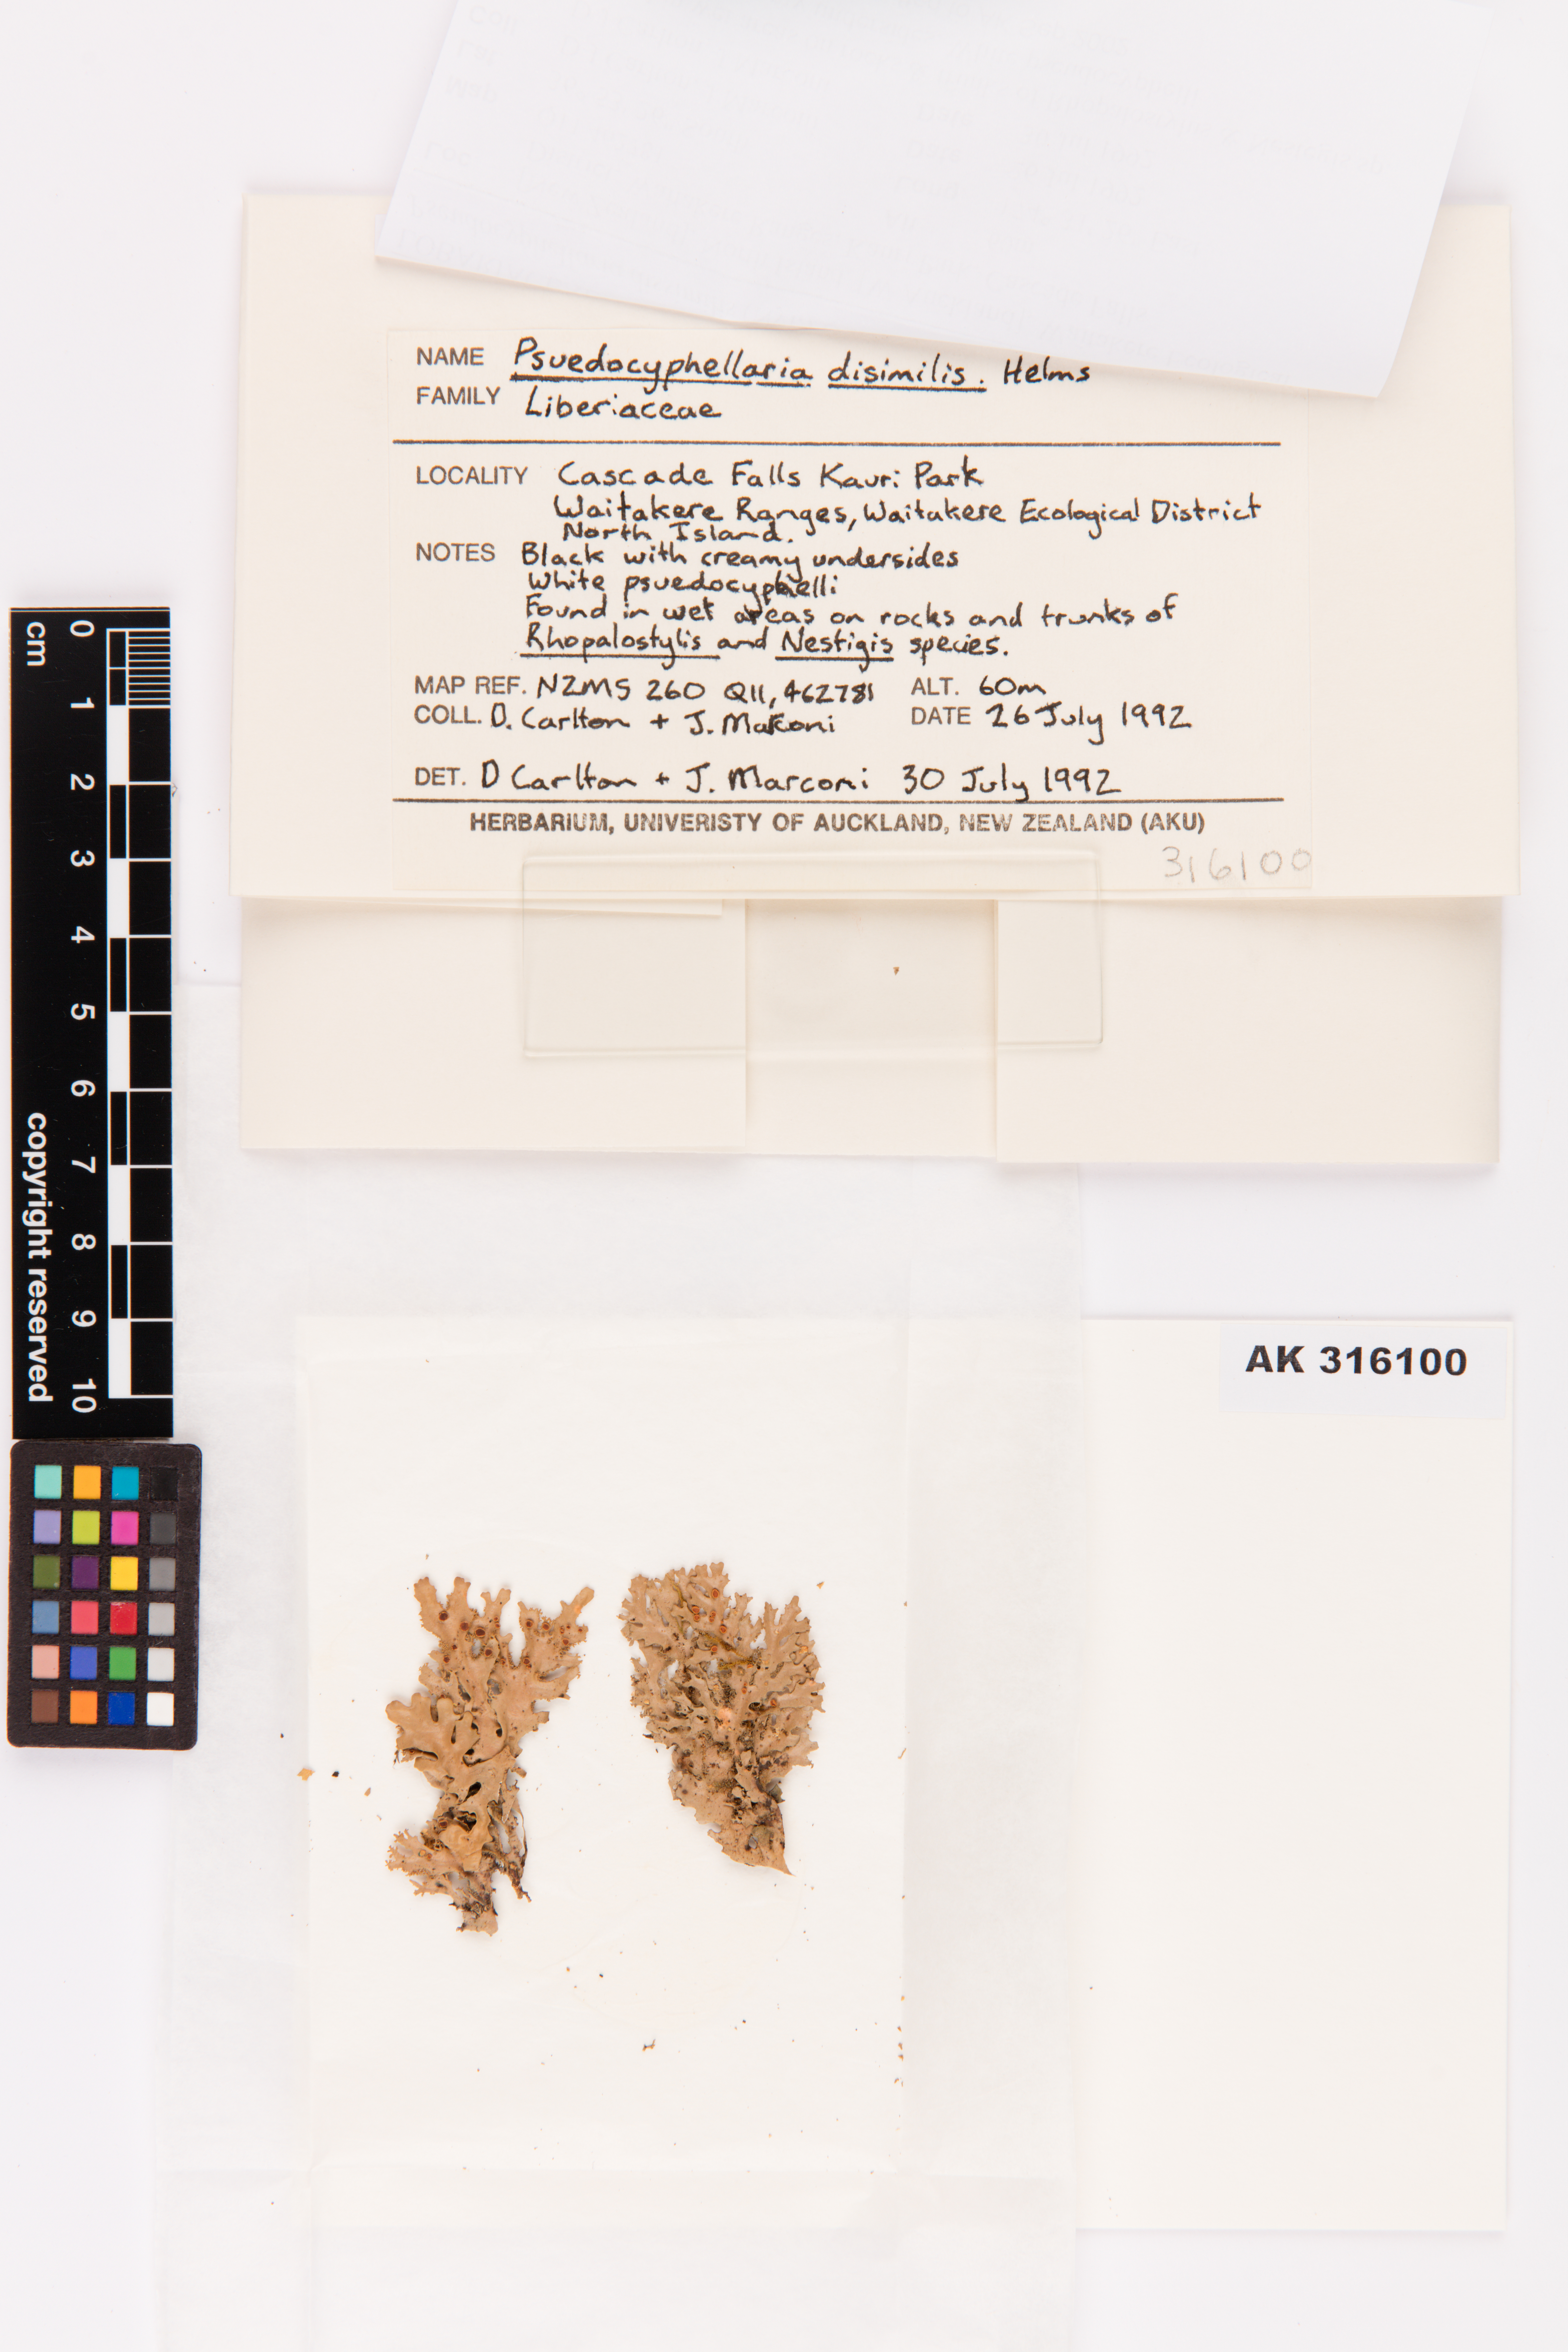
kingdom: Fungi
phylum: Ascomycota
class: Lecanoromycetes
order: Peltigerales
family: Lobariaceae
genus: Pseudocyphellaria
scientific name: Pseudocyphellaria dissimilis
